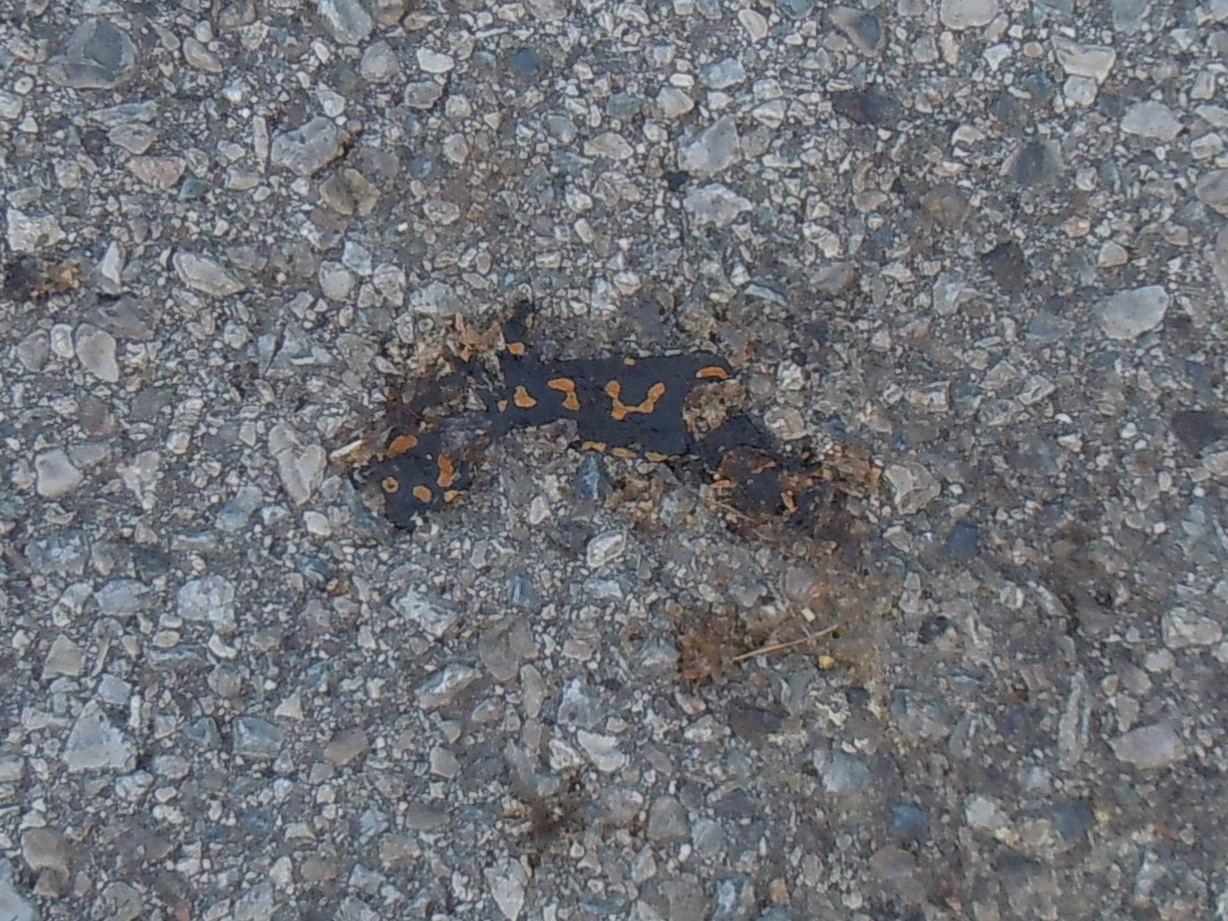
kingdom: Animalia
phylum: Chordata
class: Amphibia
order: Caudata
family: Salamandridae
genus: Salamandra
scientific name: Salamandra salamandra
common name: Fire salamander
